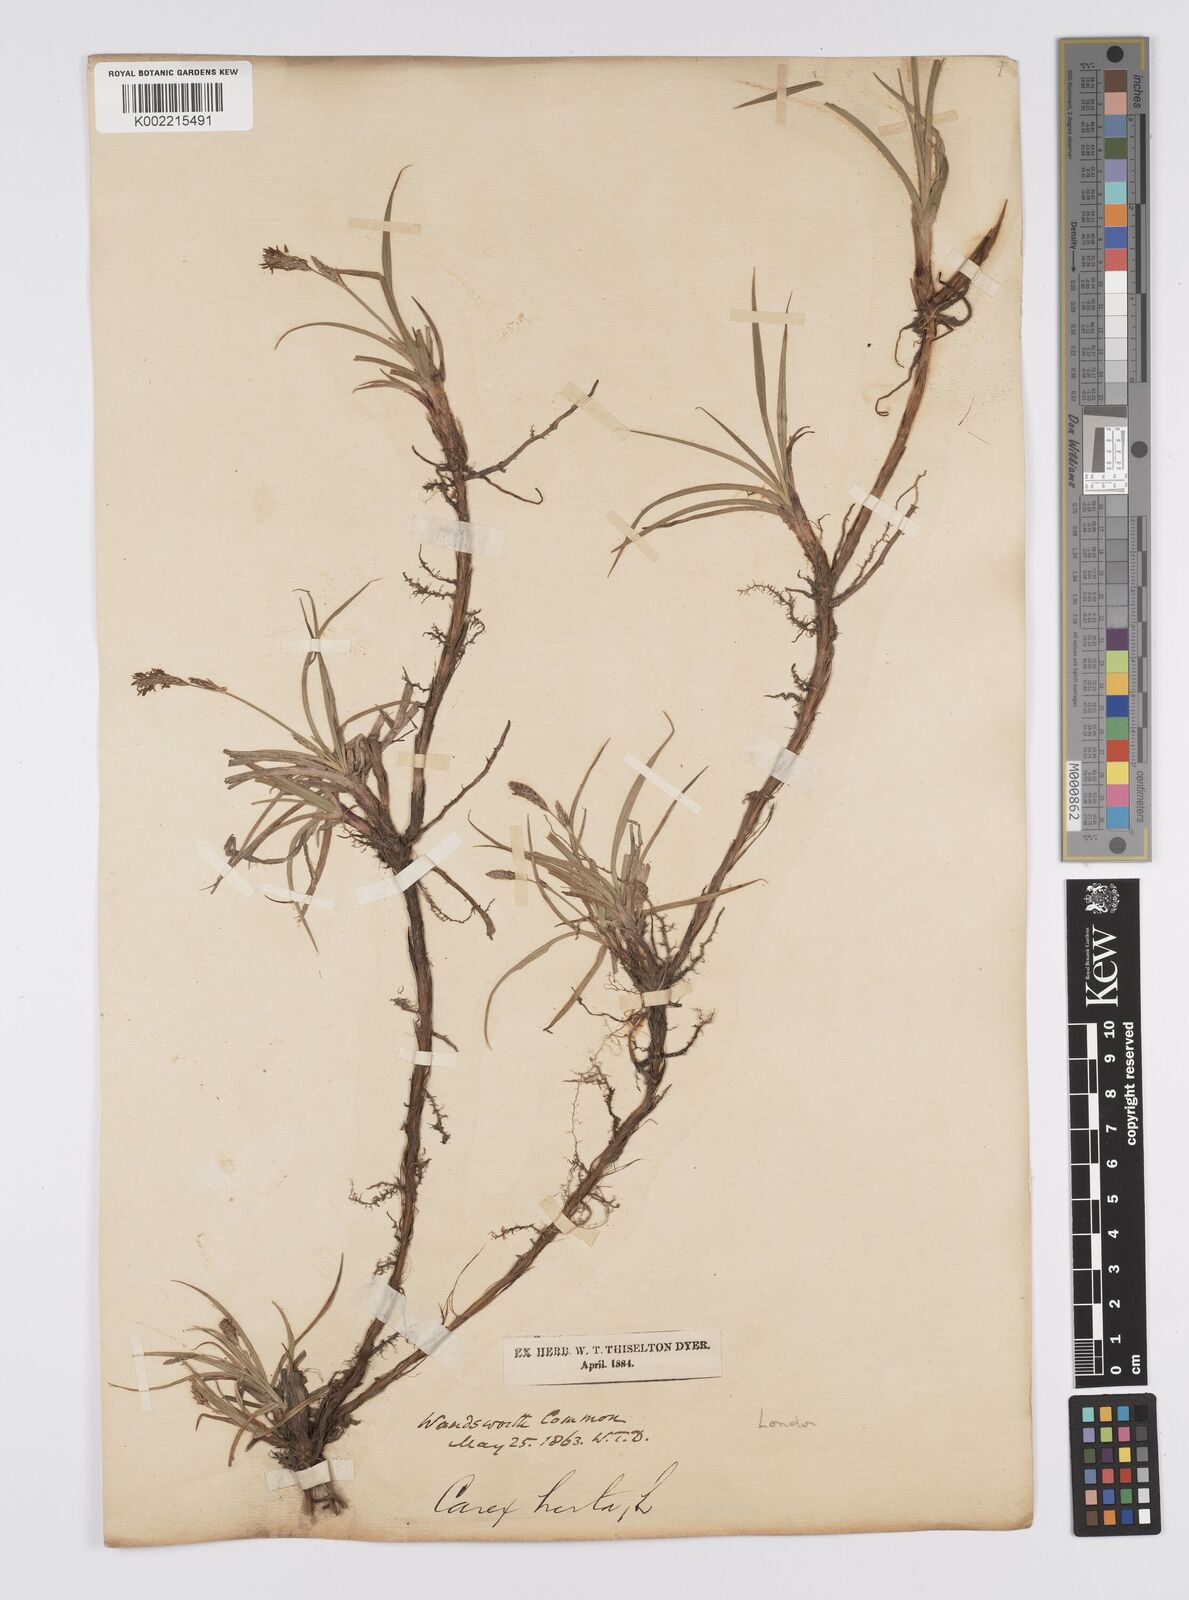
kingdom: Plantae
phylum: Tracheophyta
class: Liliopsida
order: Poales
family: Cyperaceae
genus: Carex
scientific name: Carex hirta
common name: Hairy sedge
